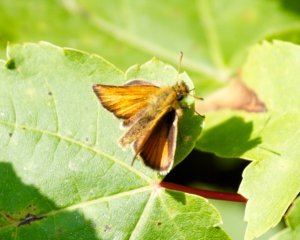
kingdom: Animalia
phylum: Arthropoda
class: Insecta
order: Lepidoptera
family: Hesperiidae
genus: Thymelicus
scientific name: Thymelicus lineola
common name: European Skipper
